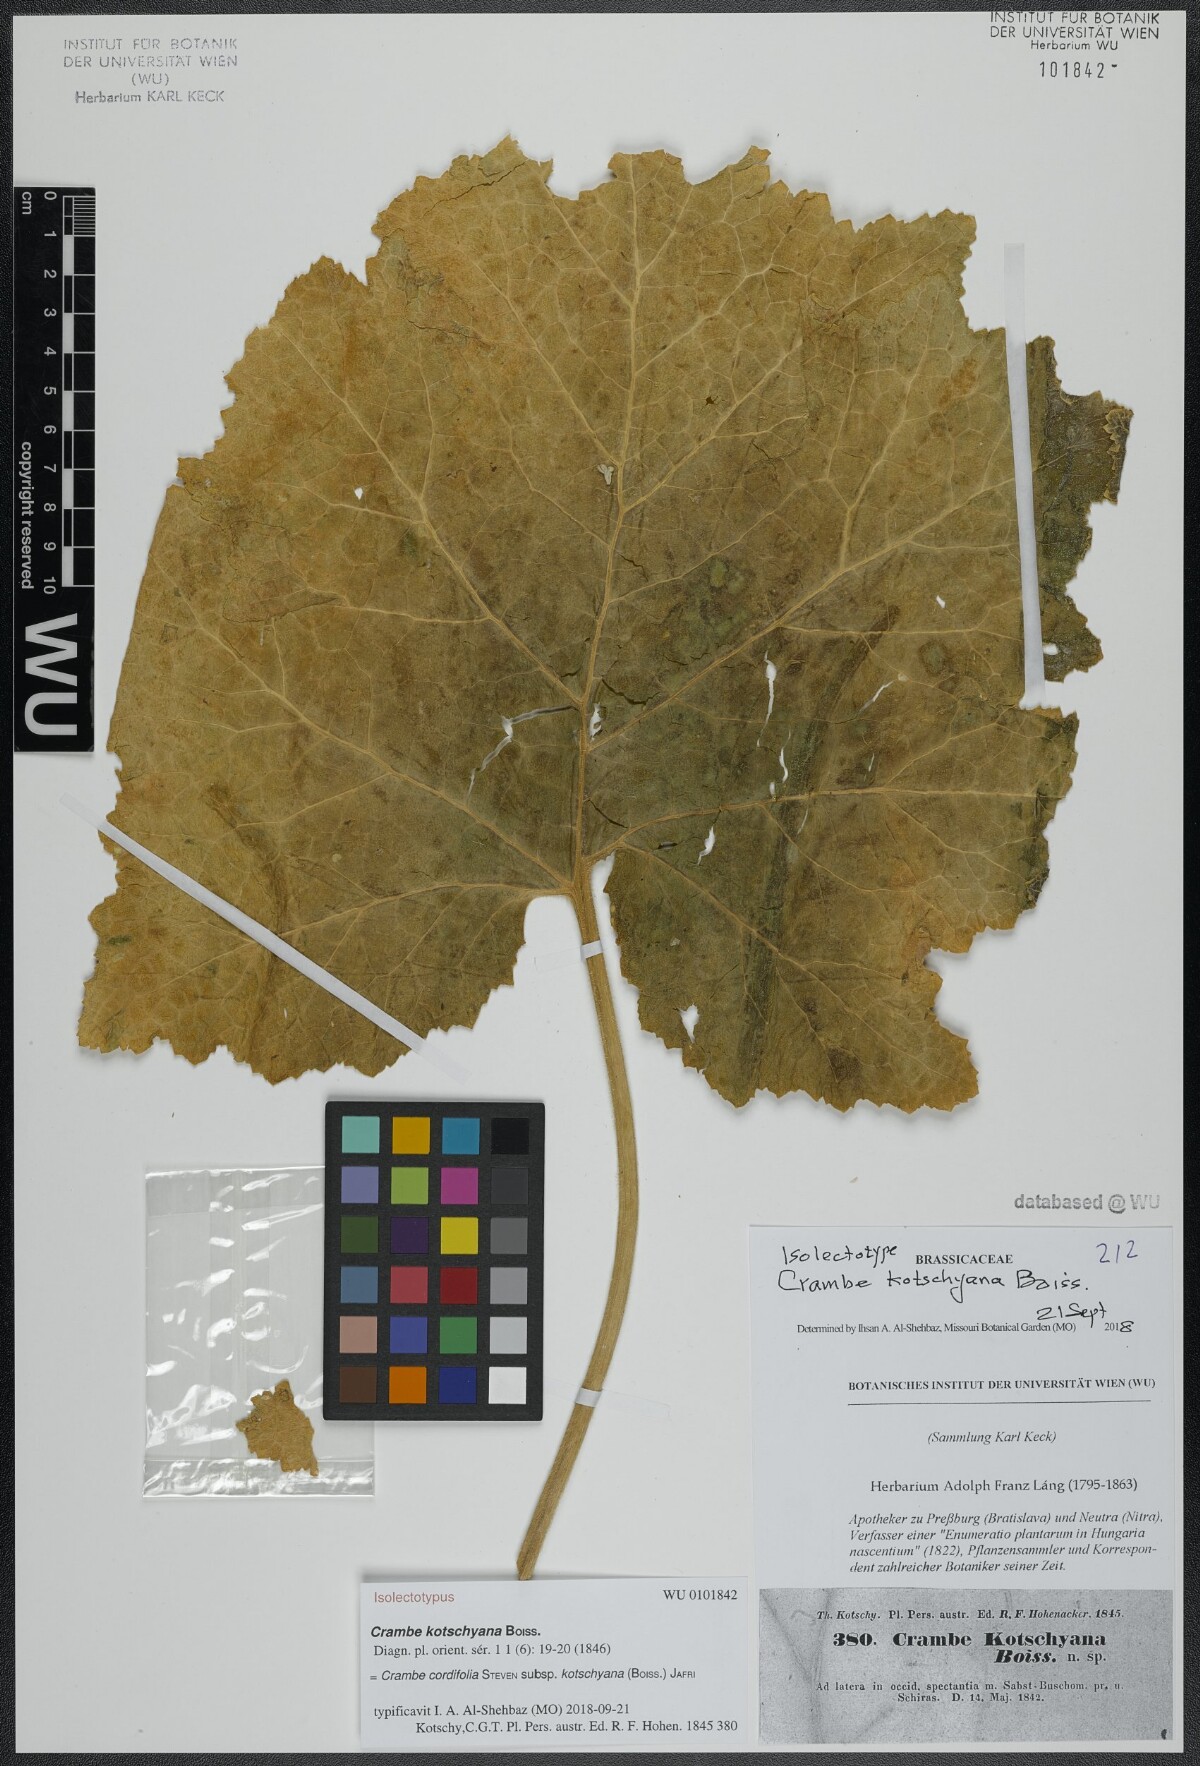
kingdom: Plantae
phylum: Tracheophyta
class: Magnoliopsida
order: Brassicales
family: Brassicaceae
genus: Crambe
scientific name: Crambe kotschyana
